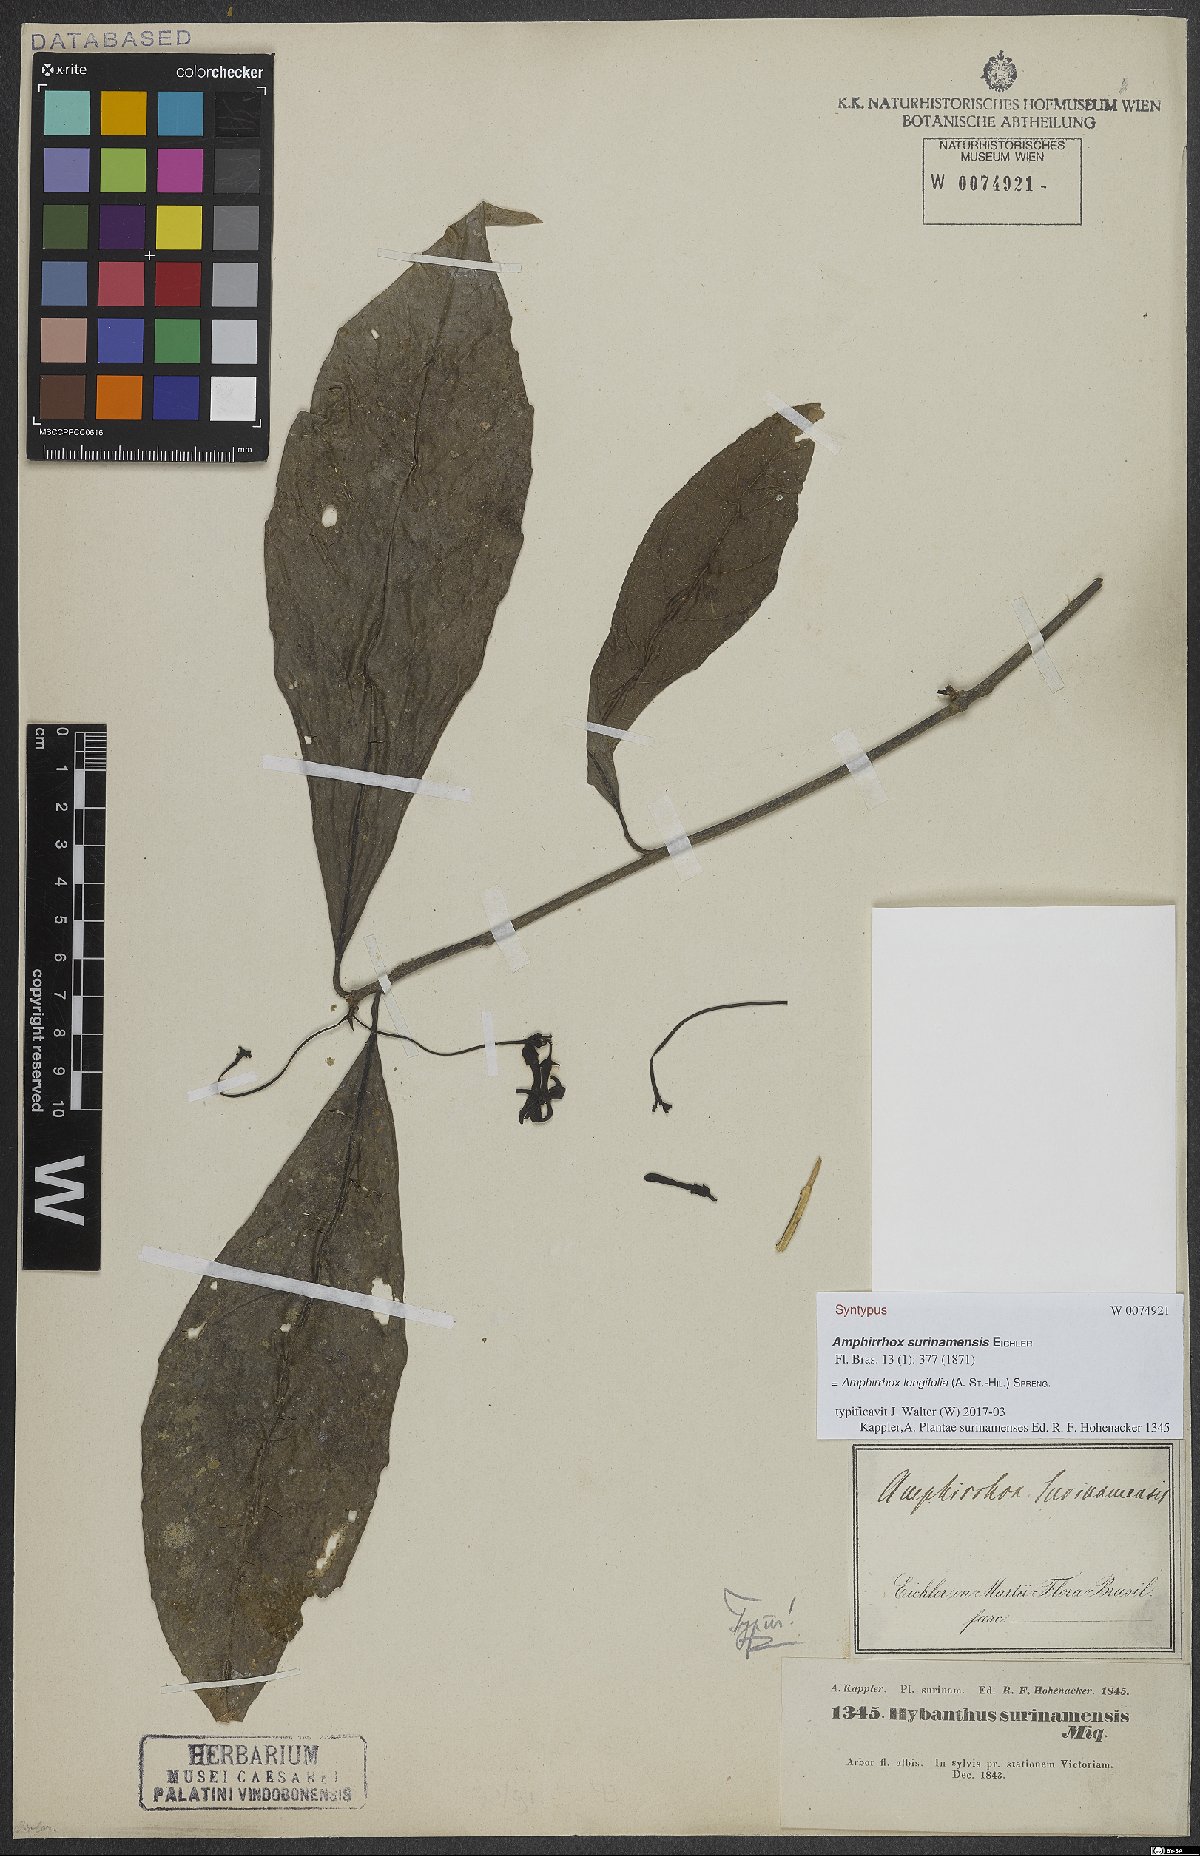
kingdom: Plantae
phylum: Tracheophyta
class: Magnoliopsida
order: Malpighiales
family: Violaceae
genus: Amphirrhox
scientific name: Amphirrhox longifolia
